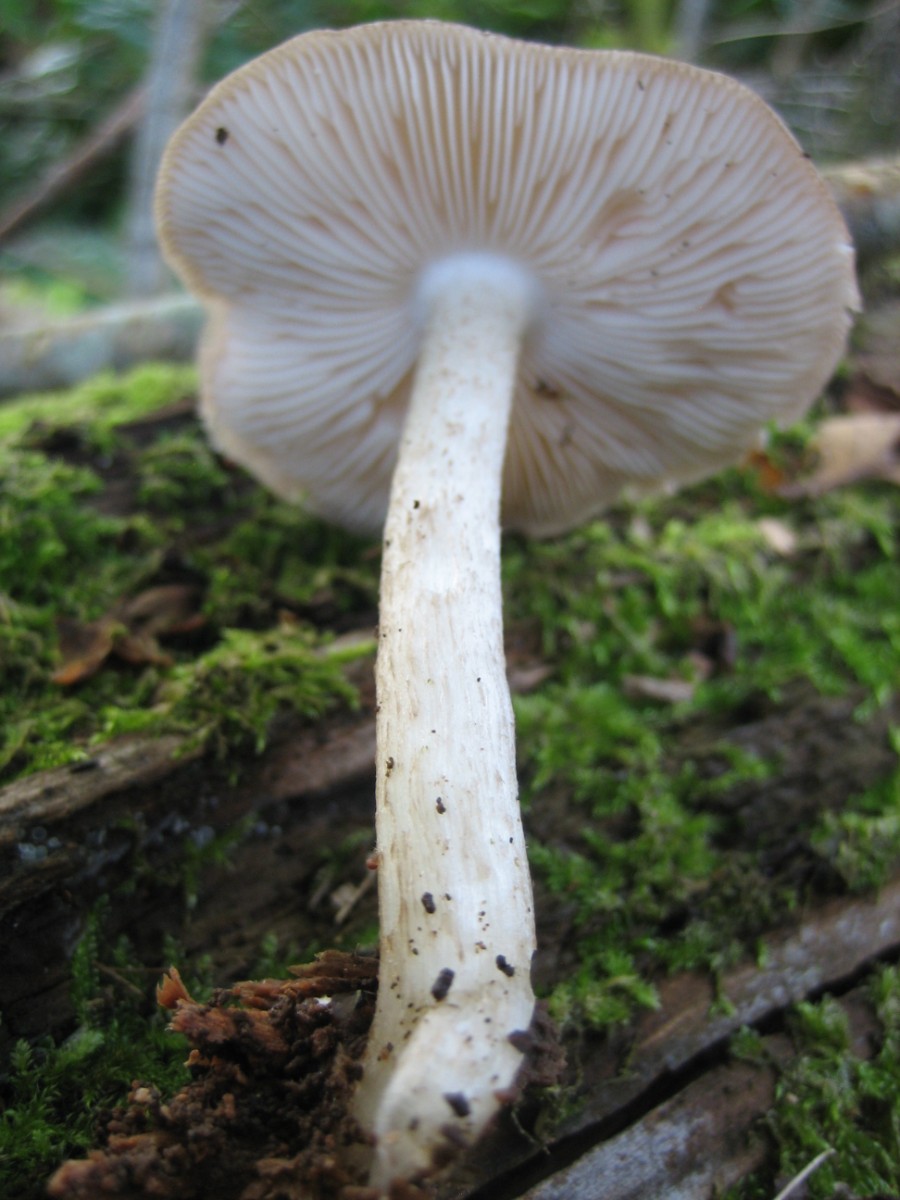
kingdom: Fungi
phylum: Basidiomycota
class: Agaricomycetes
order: Agaricales
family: Pluteaceae
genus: Pluteus
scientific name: Pluteus cervinus
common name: sodfarvet skærmhat
